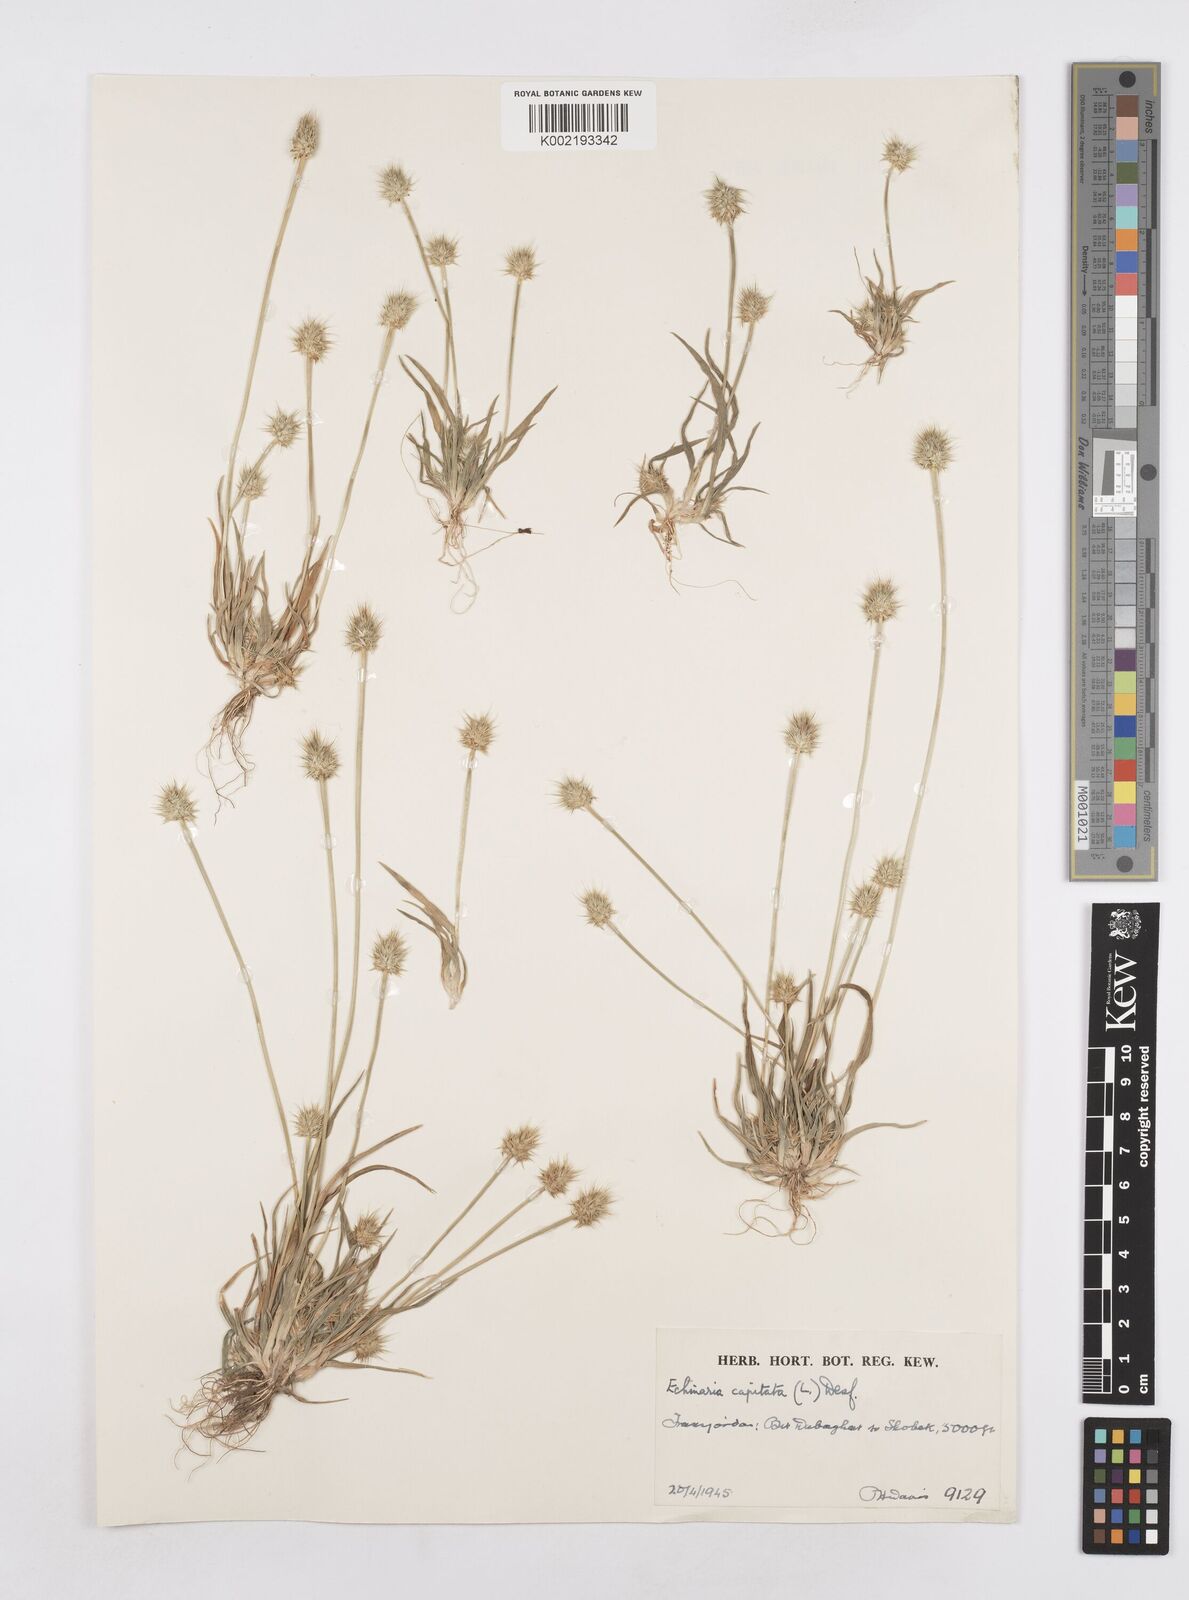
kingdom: Plantae
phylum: Tracheophyta
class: Liliopsida
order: Poales
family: Poaceae
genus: Echinaria
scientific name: Echinaria capitata
